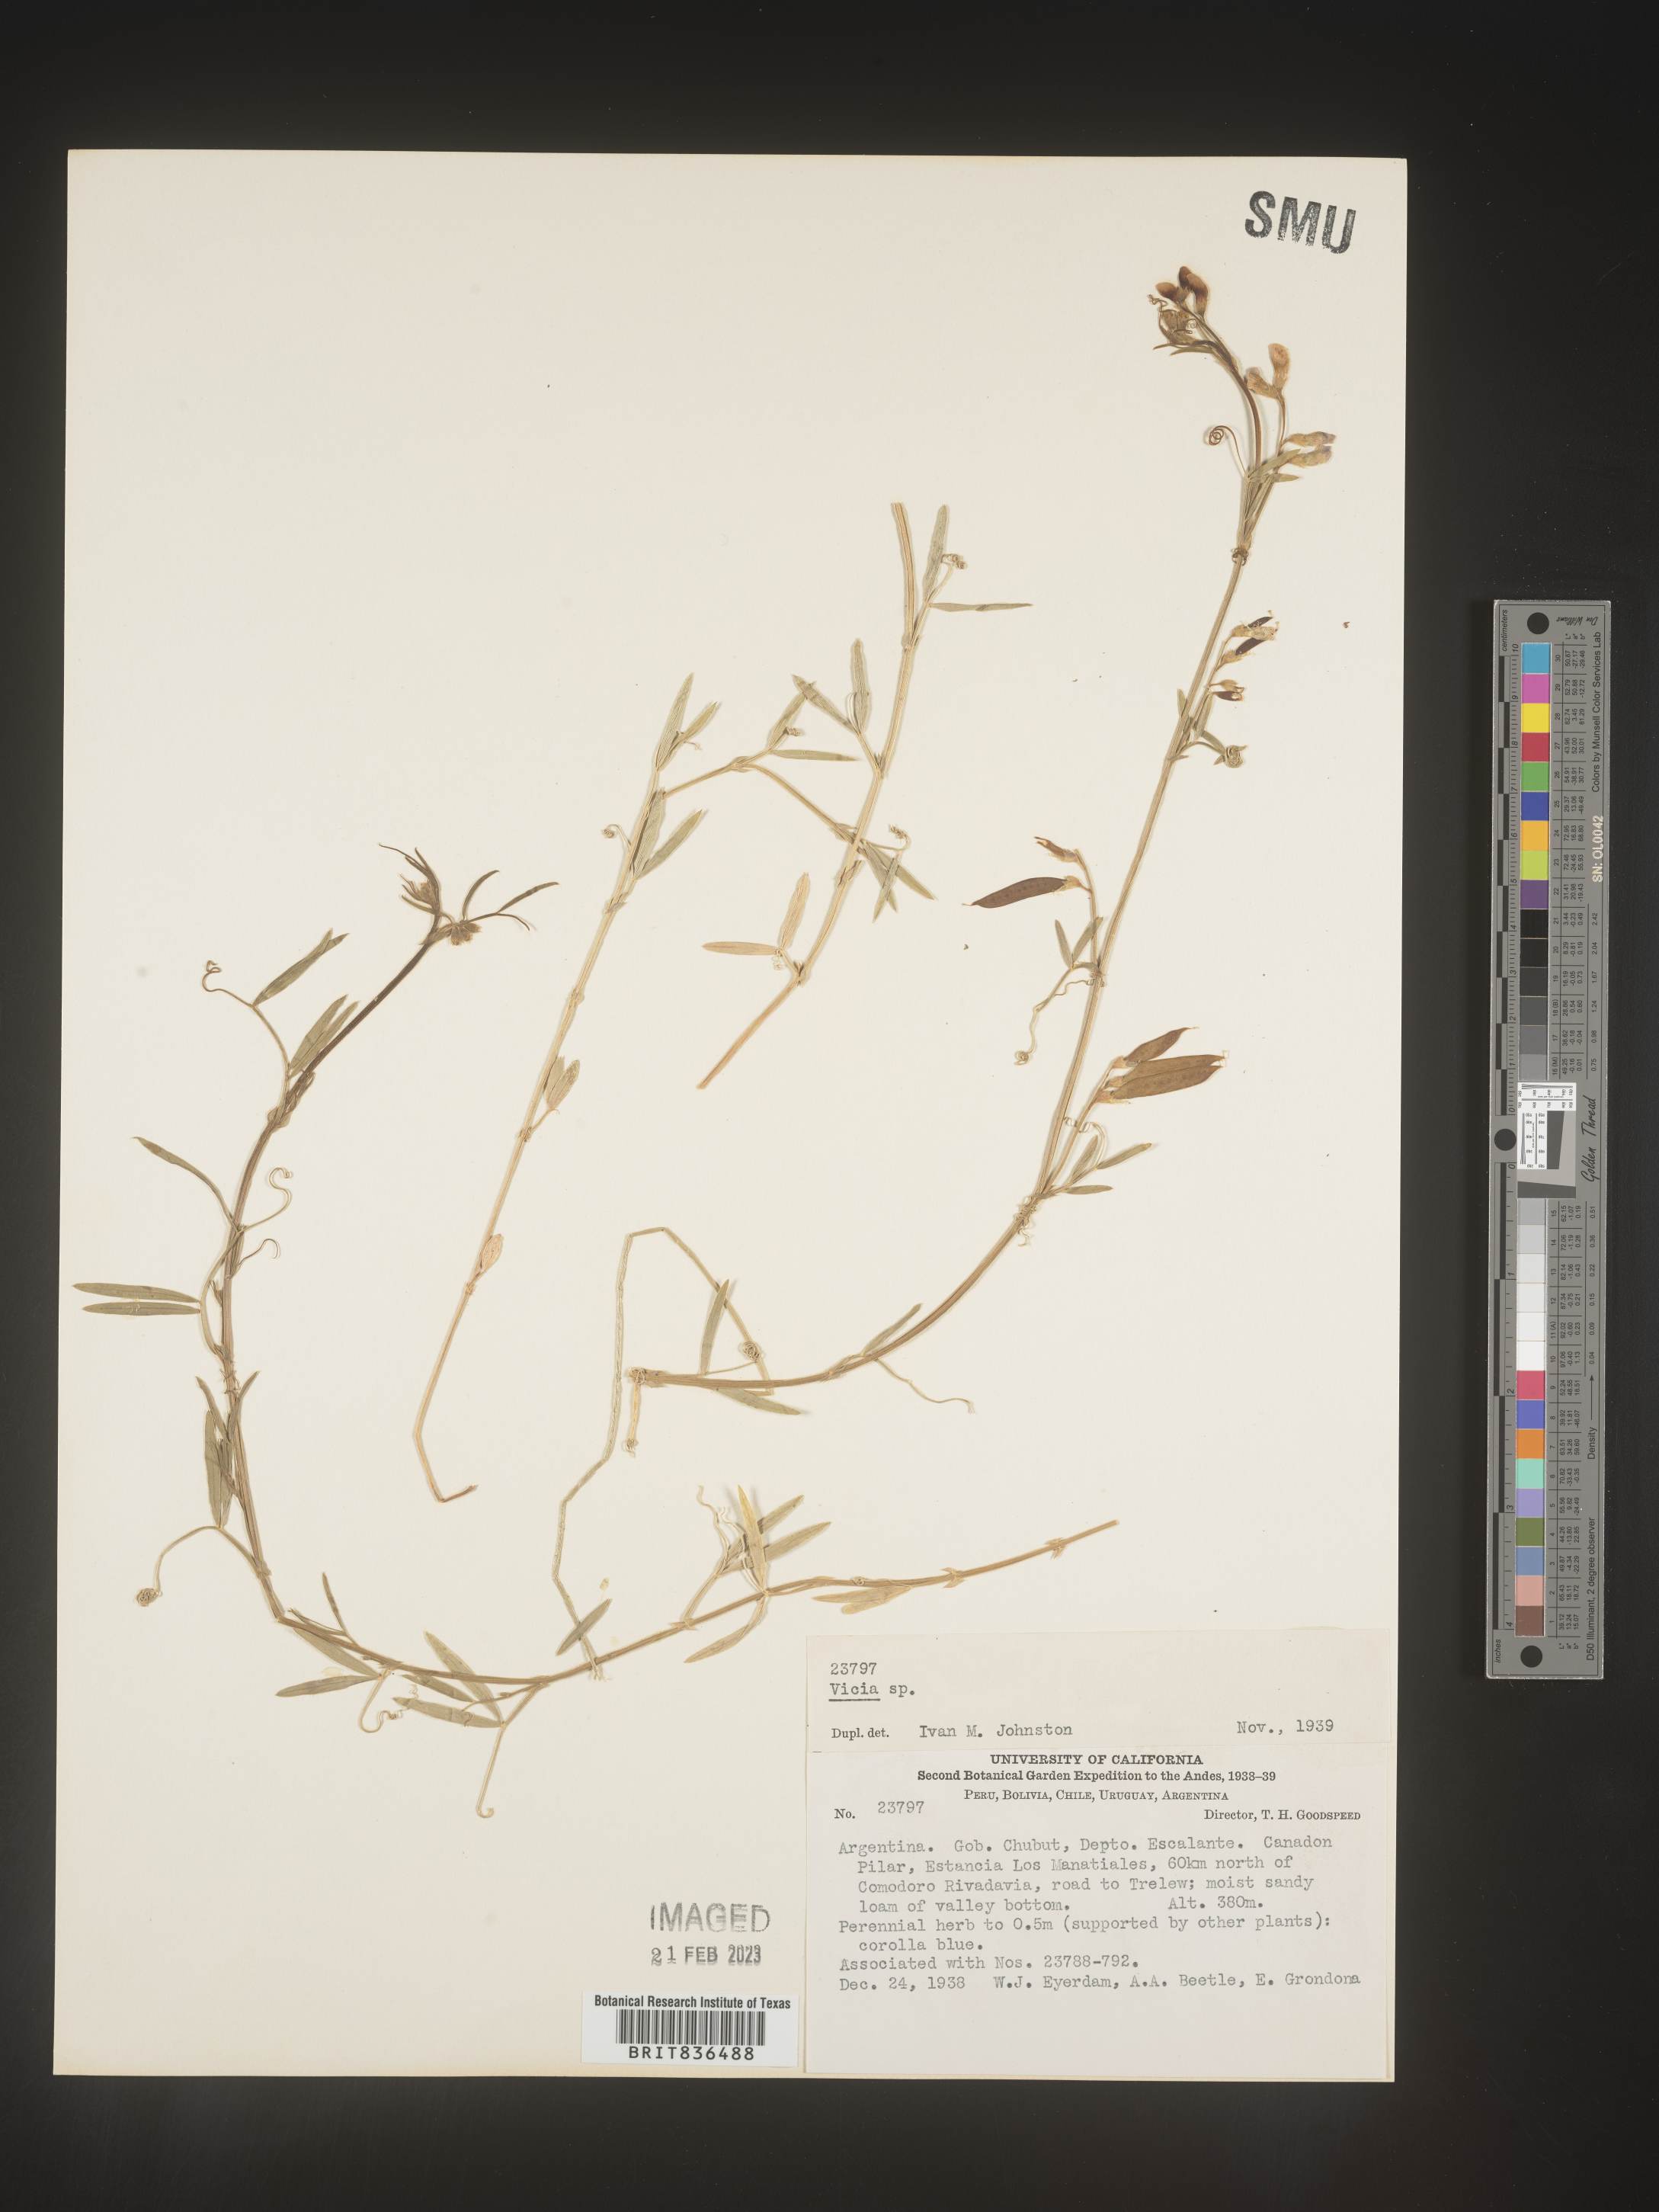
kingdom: Plantae
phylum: Tracheophyta
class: Magnoliopsida
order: Fabales
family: Fabaceae
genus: Vicia
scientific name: Vicia
